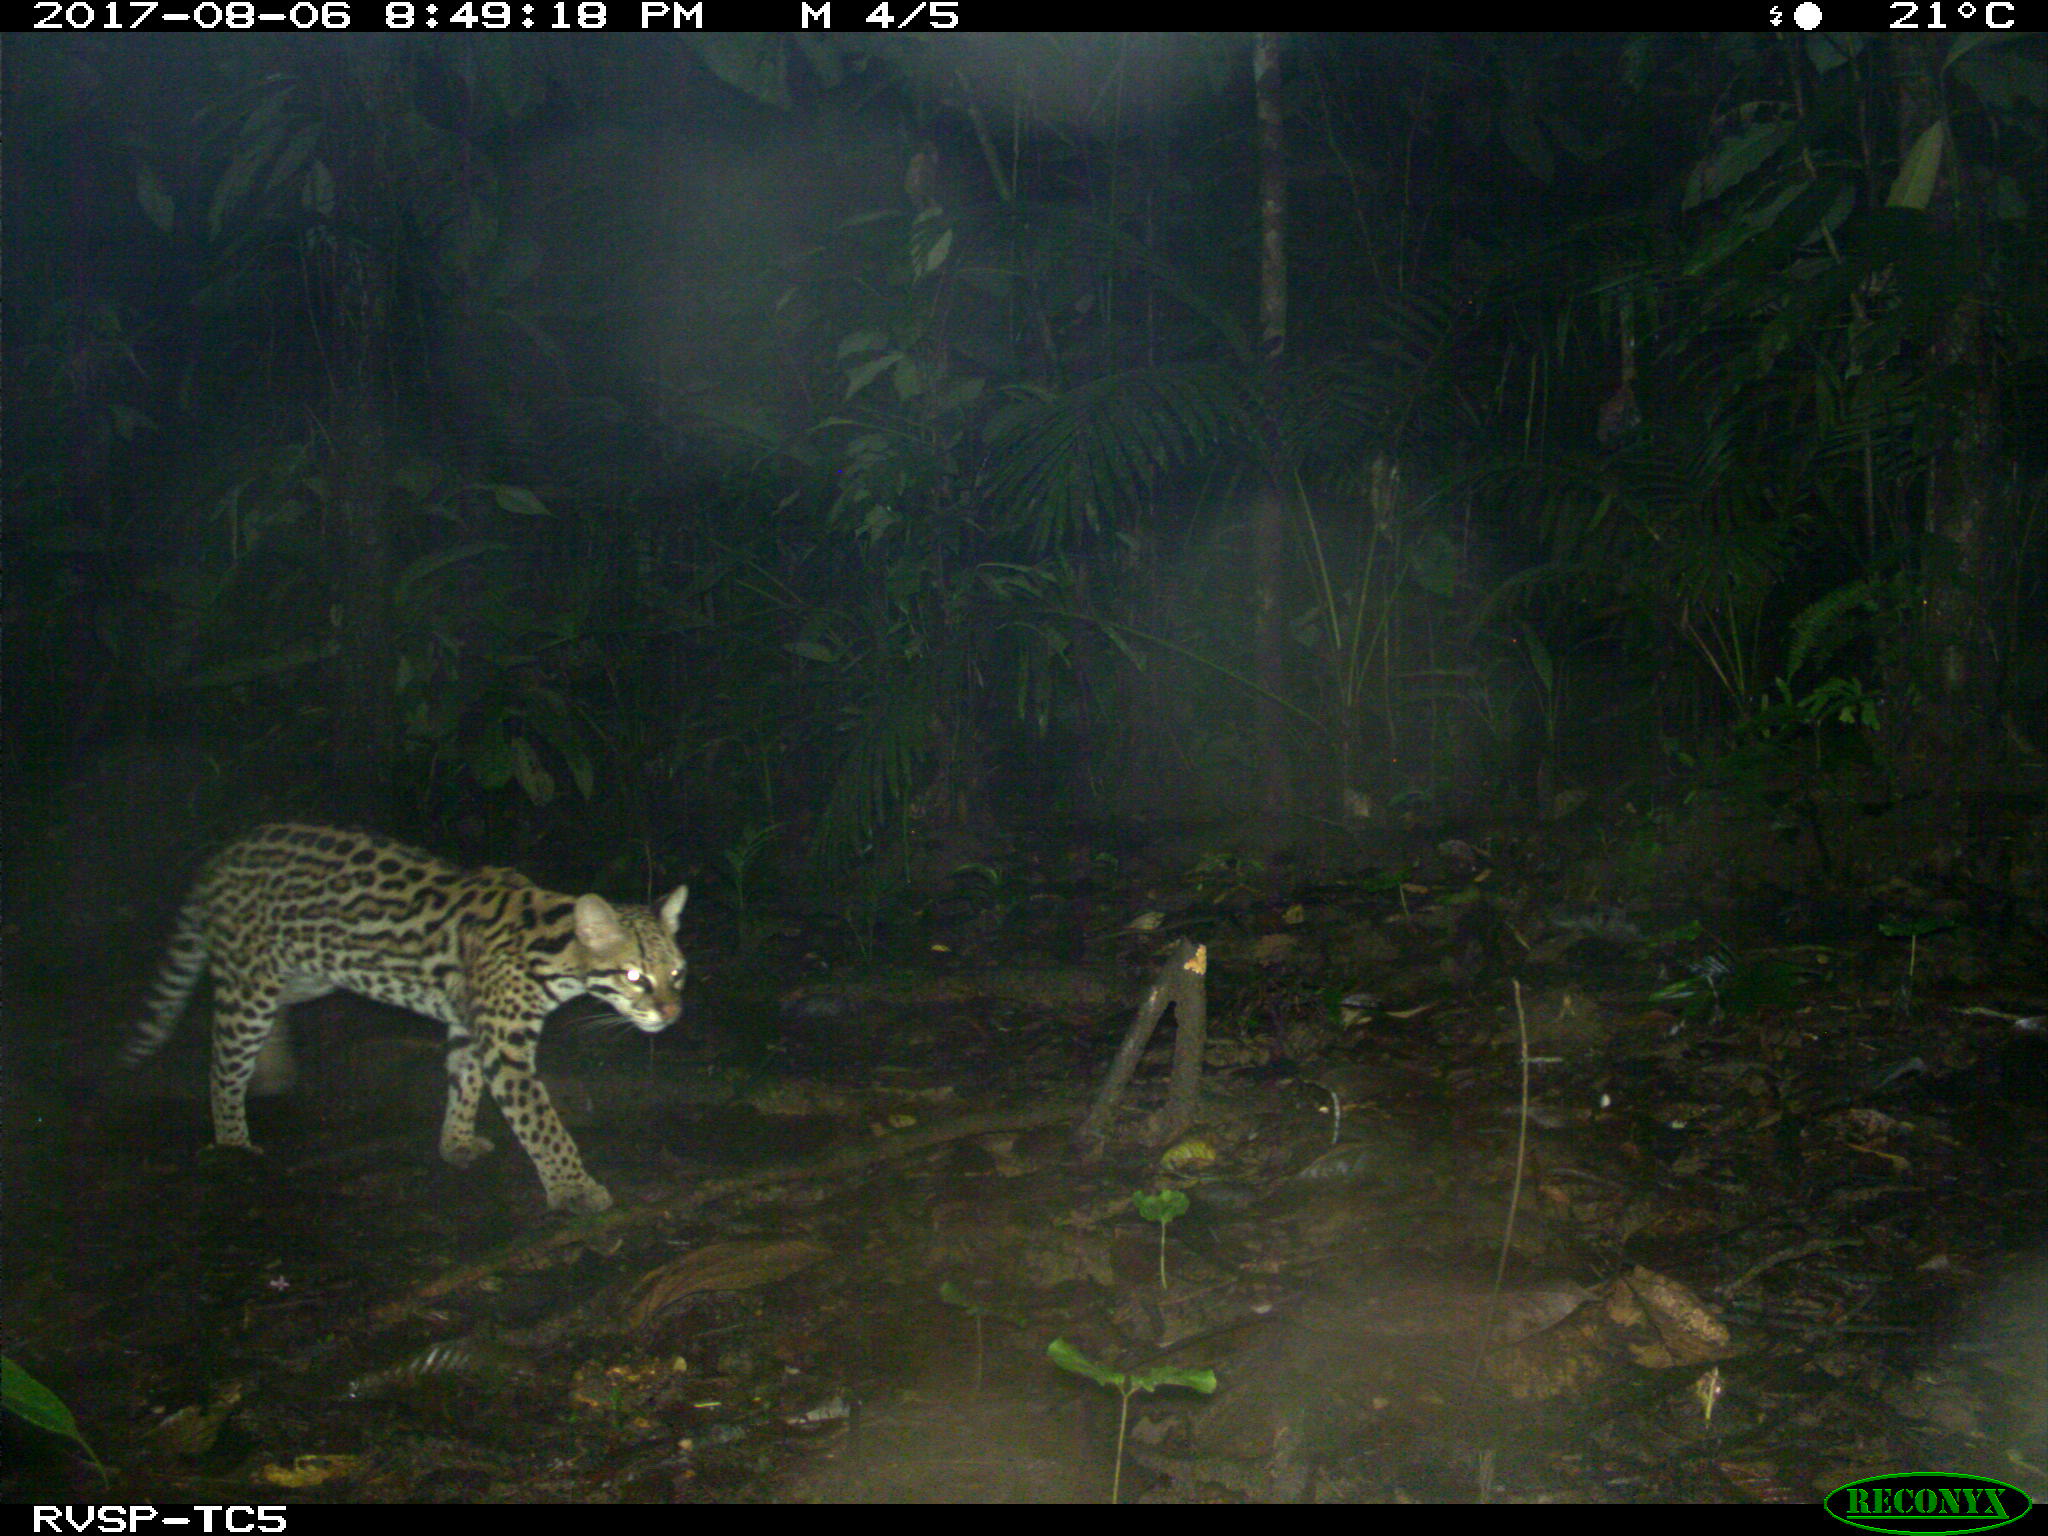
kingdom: Animalia
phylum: Chordata
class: Mammalia
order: Carnivora
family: Felidae
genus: Leopardus
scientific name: Leopardus pardalis
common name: Ocelot
